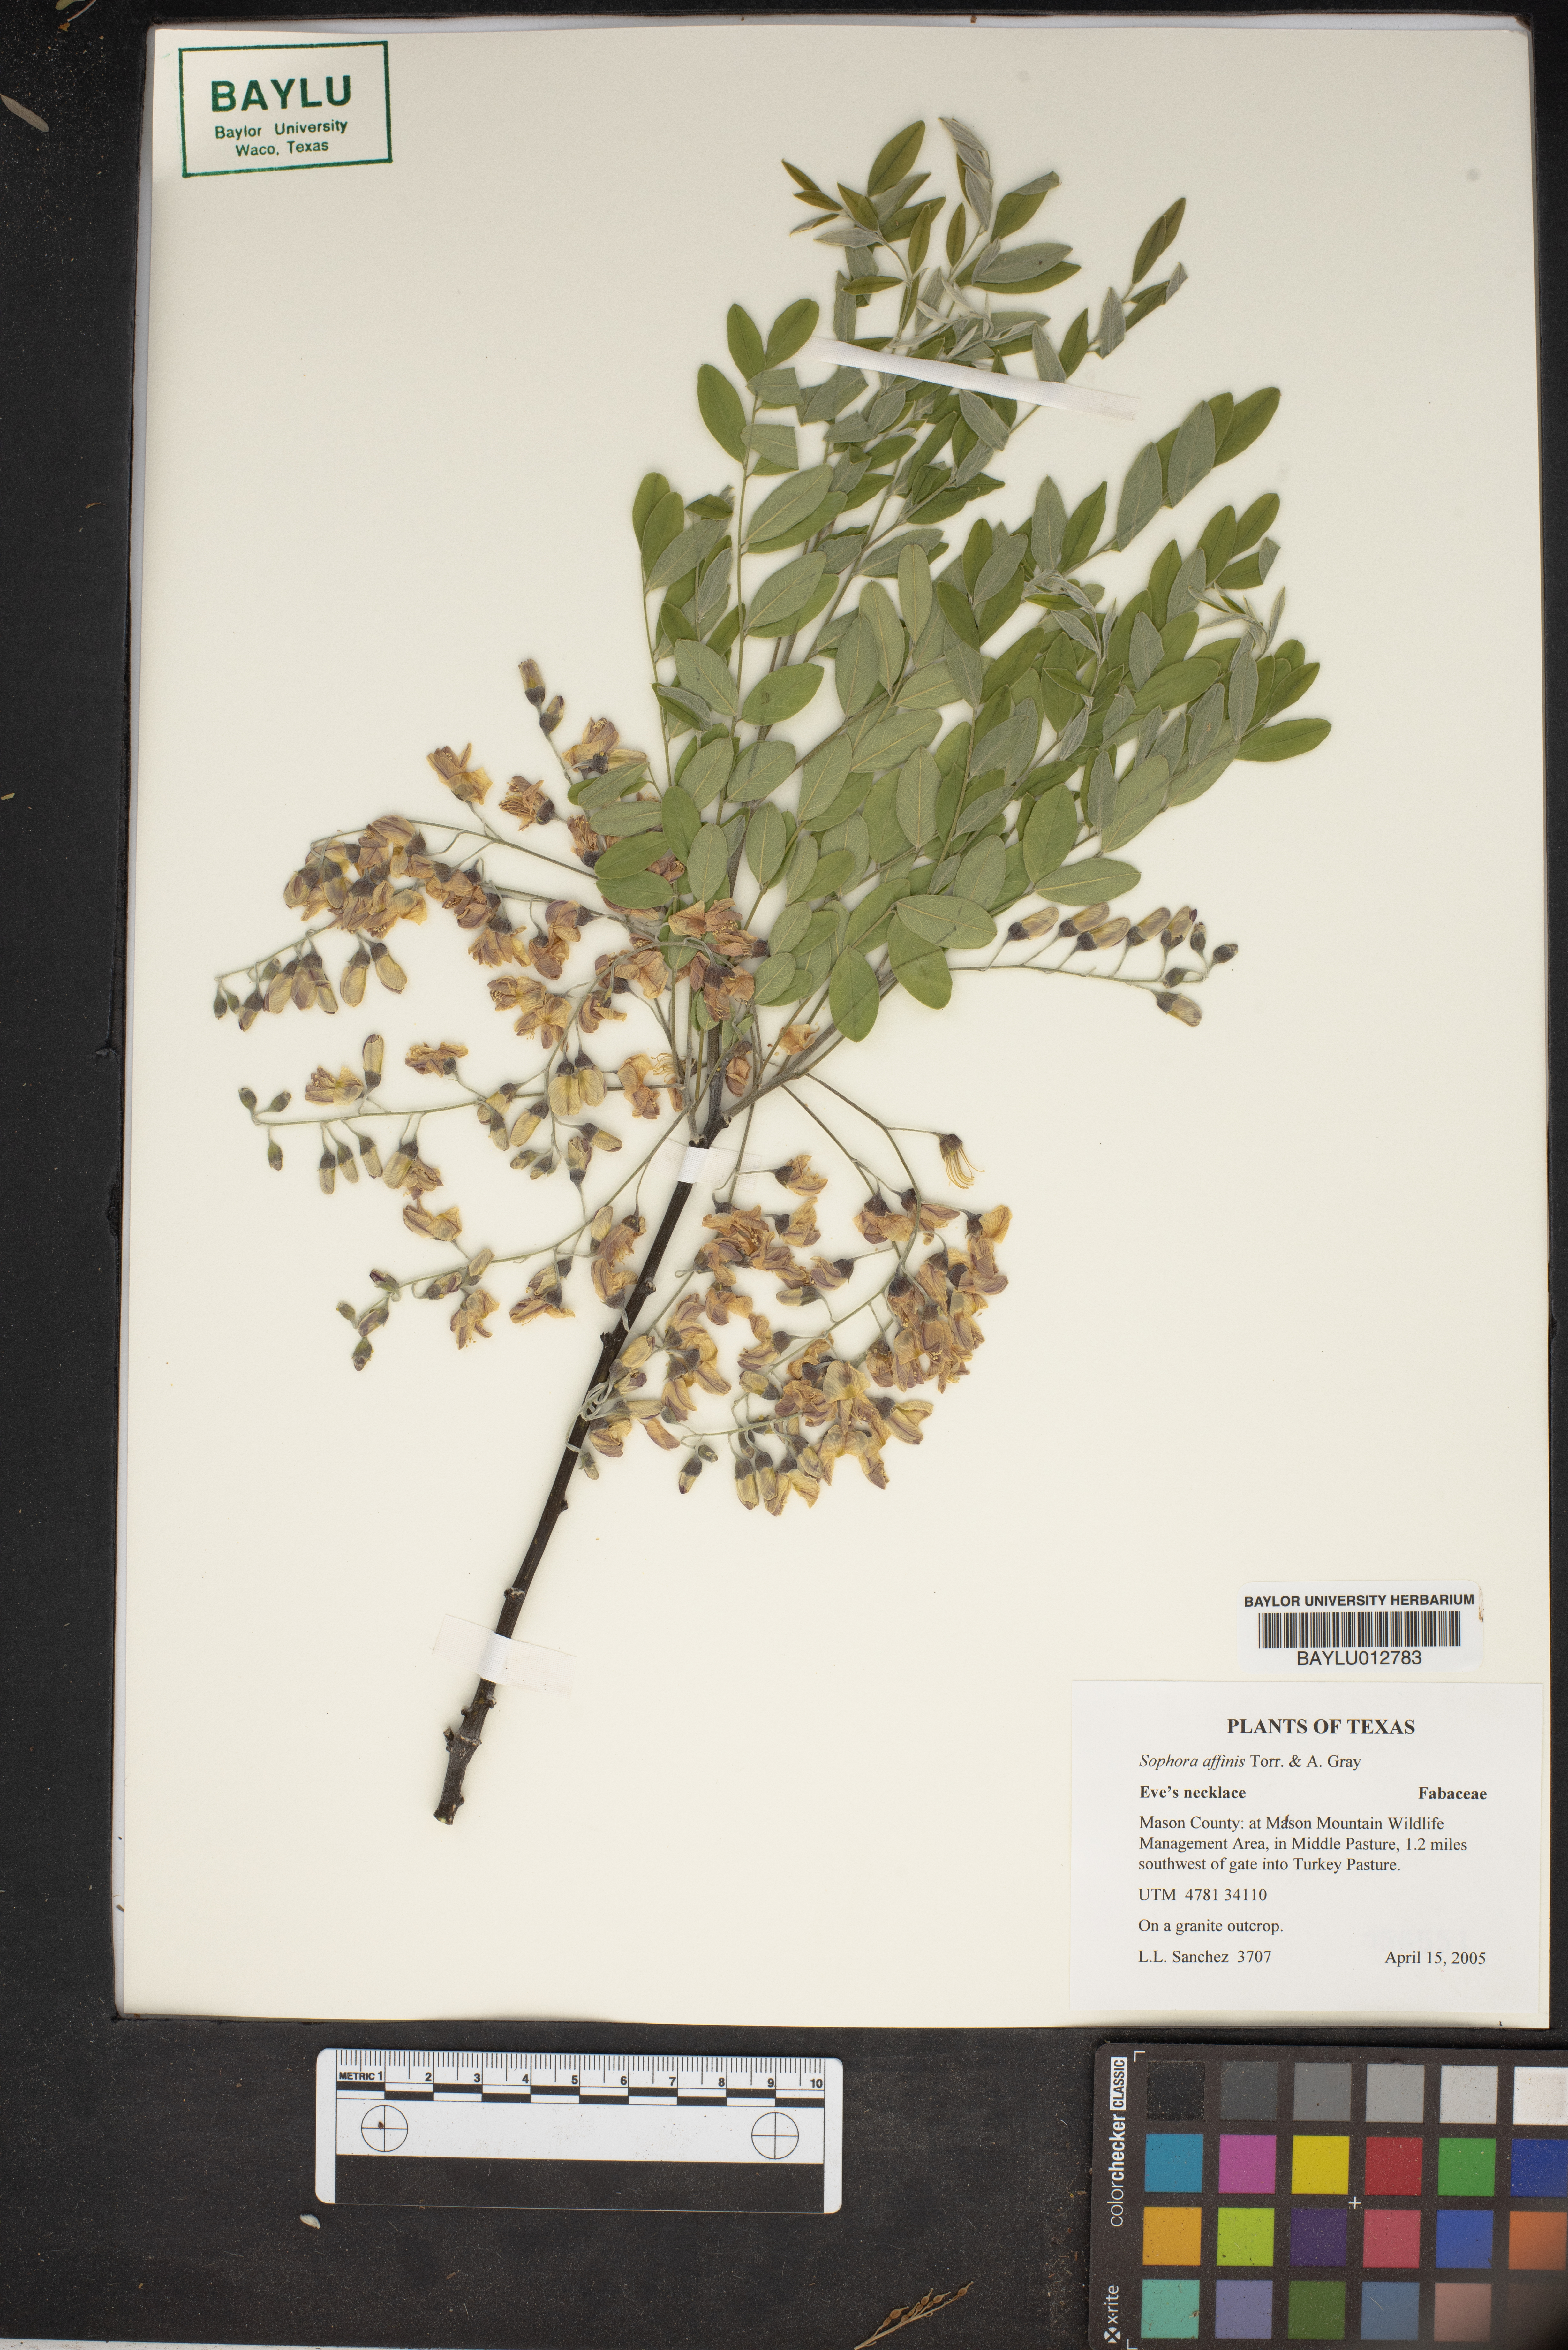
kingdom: Plantae
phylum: Tracheophyta
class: Magnoliopsida
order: Fabales
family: Fabaceae
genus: Styphnolobium
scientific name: Styphnolobium affine
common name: Texas sophora
